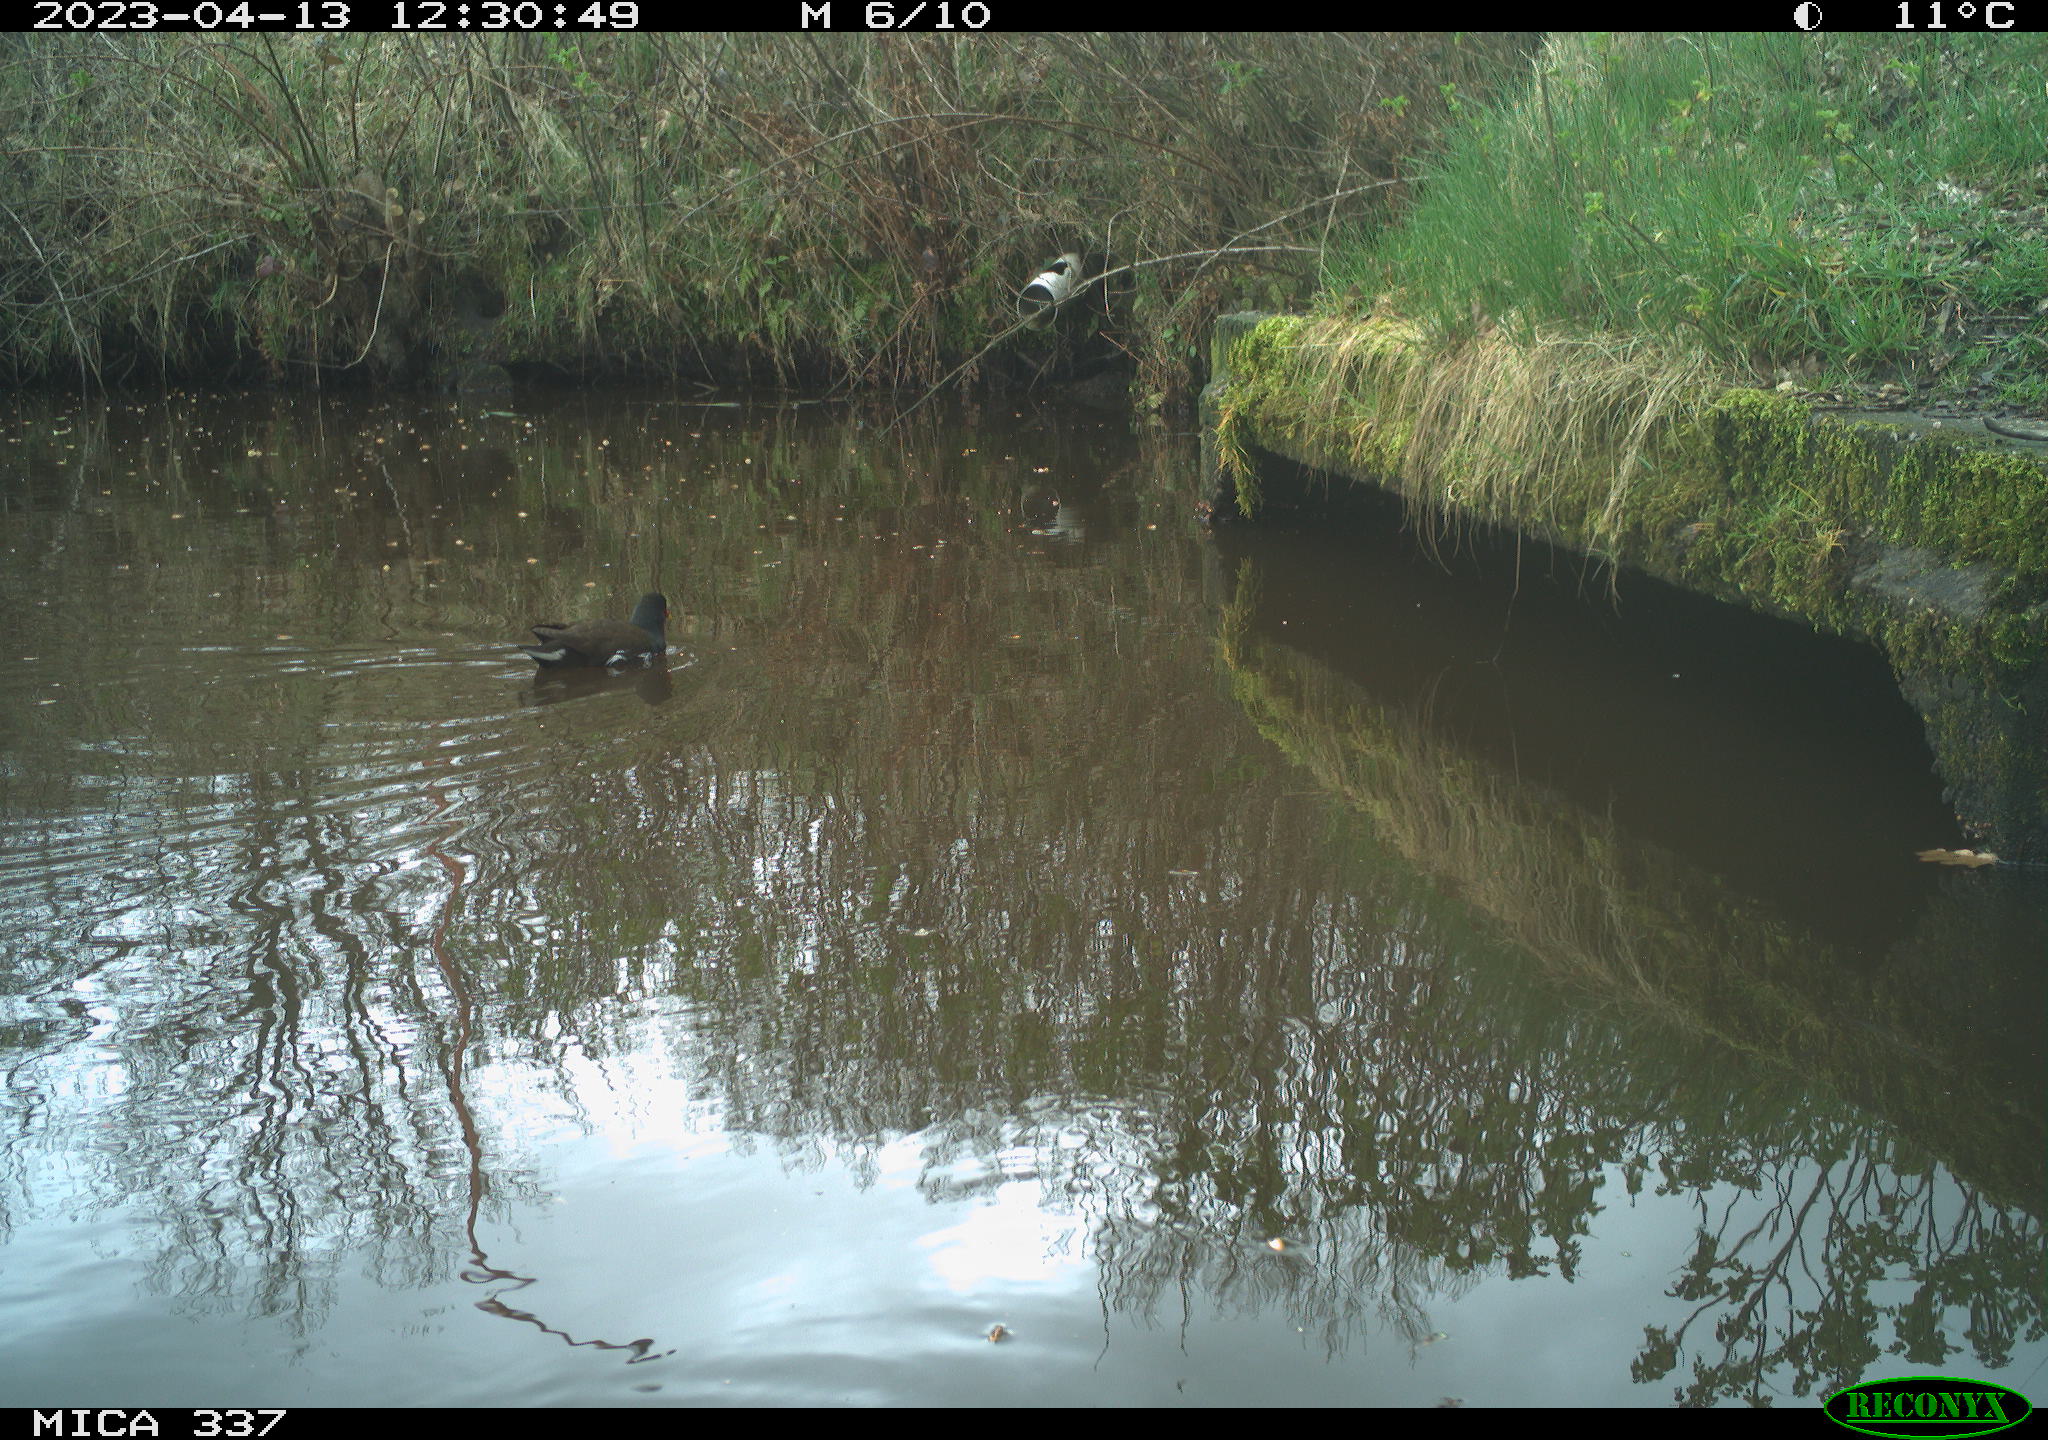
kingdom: Animalia
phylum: Chordata
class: Aves
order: Gruiformes
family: Rallidae
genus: Gallinula
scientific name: Gallinula chloropus
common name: Common moorhen
